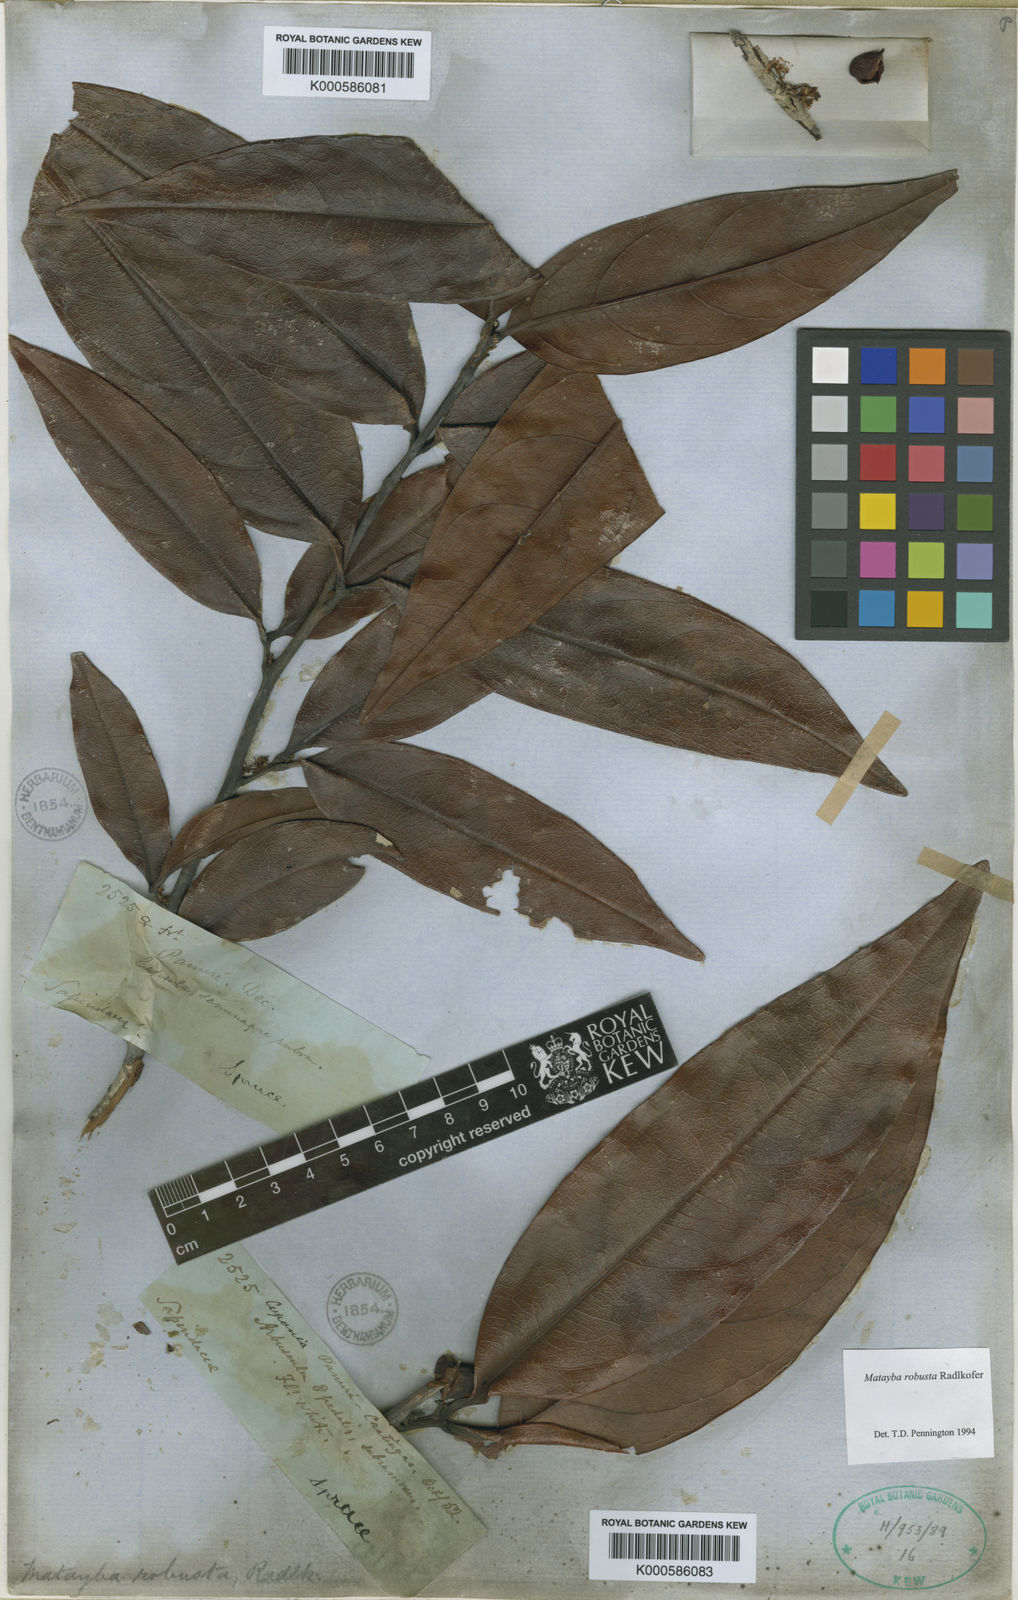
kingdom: Plantae
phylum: Tracheophyta
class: Magnoliopsida
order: Sapindales
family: Sapindaceae
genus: Matayba
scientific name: Matayba robusta
